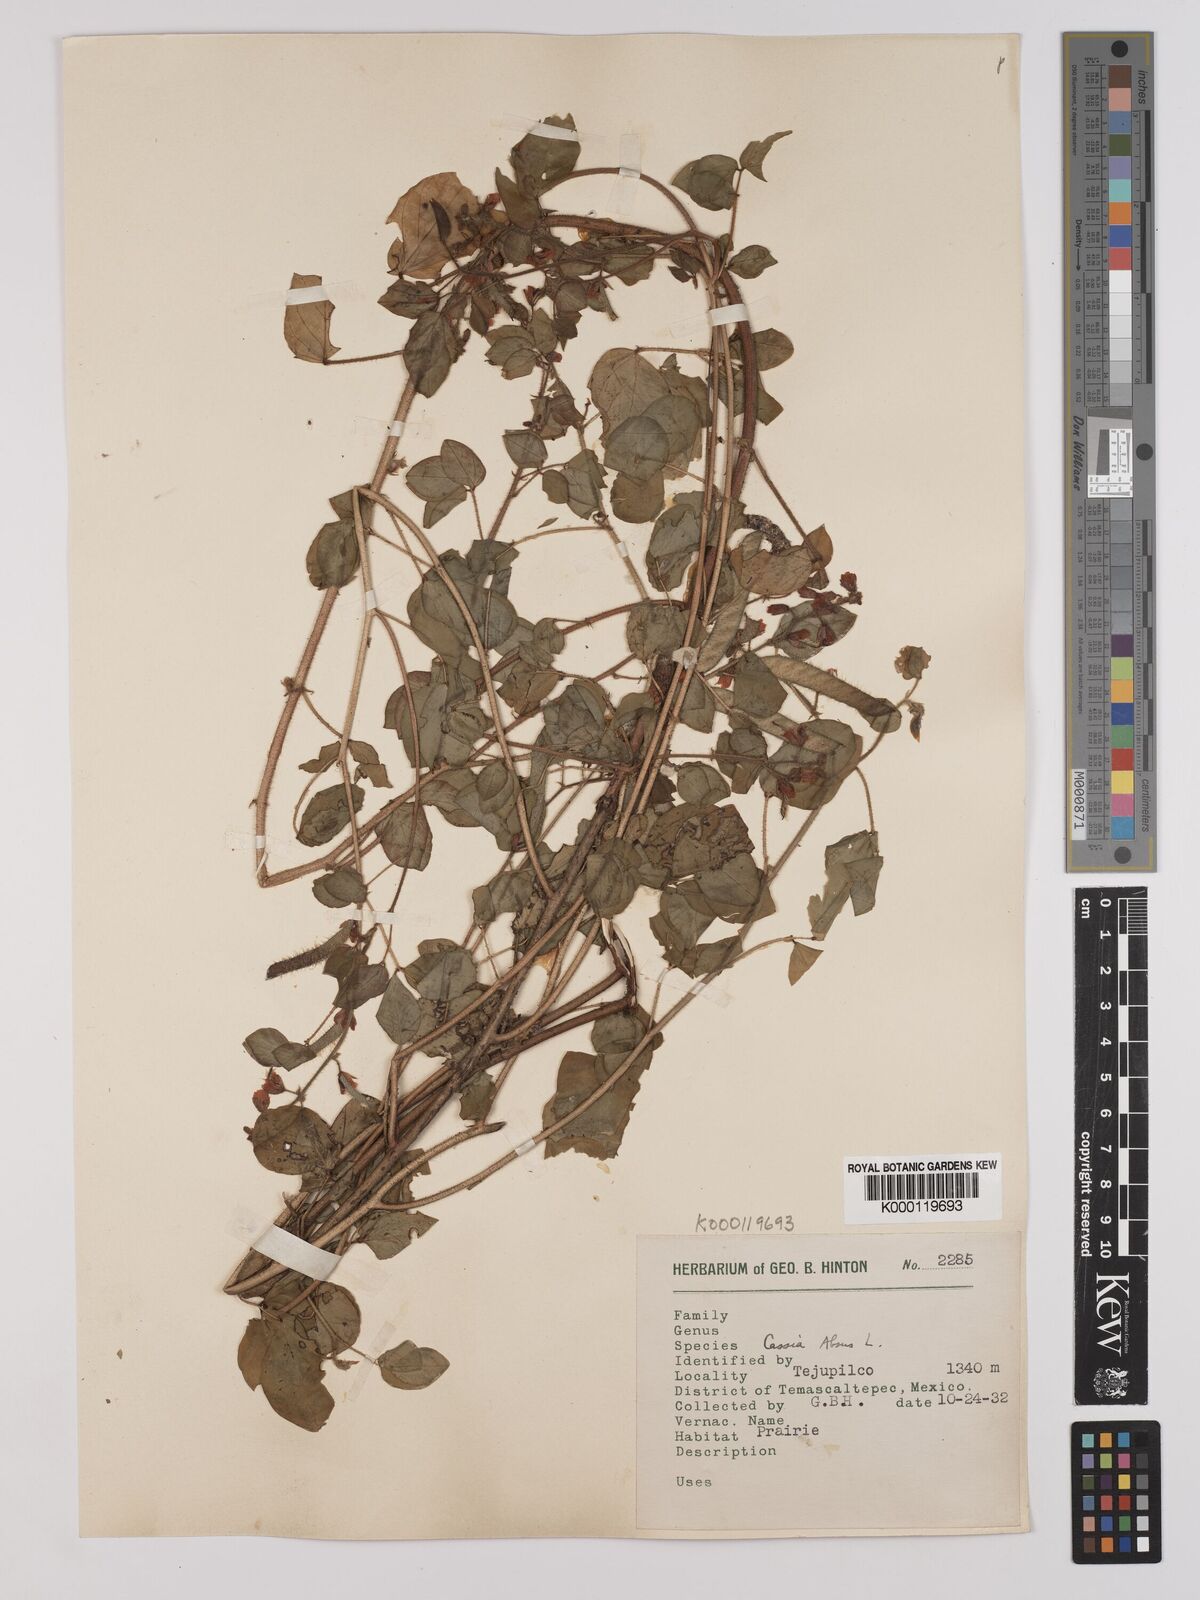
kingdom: Plantae
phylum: Tracheophyta
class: Magnoliopsida
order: Fabales
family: Fabaceae
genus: Chamaecrista
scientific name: Chamaecrista absus
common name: Tropical sensitive pea
